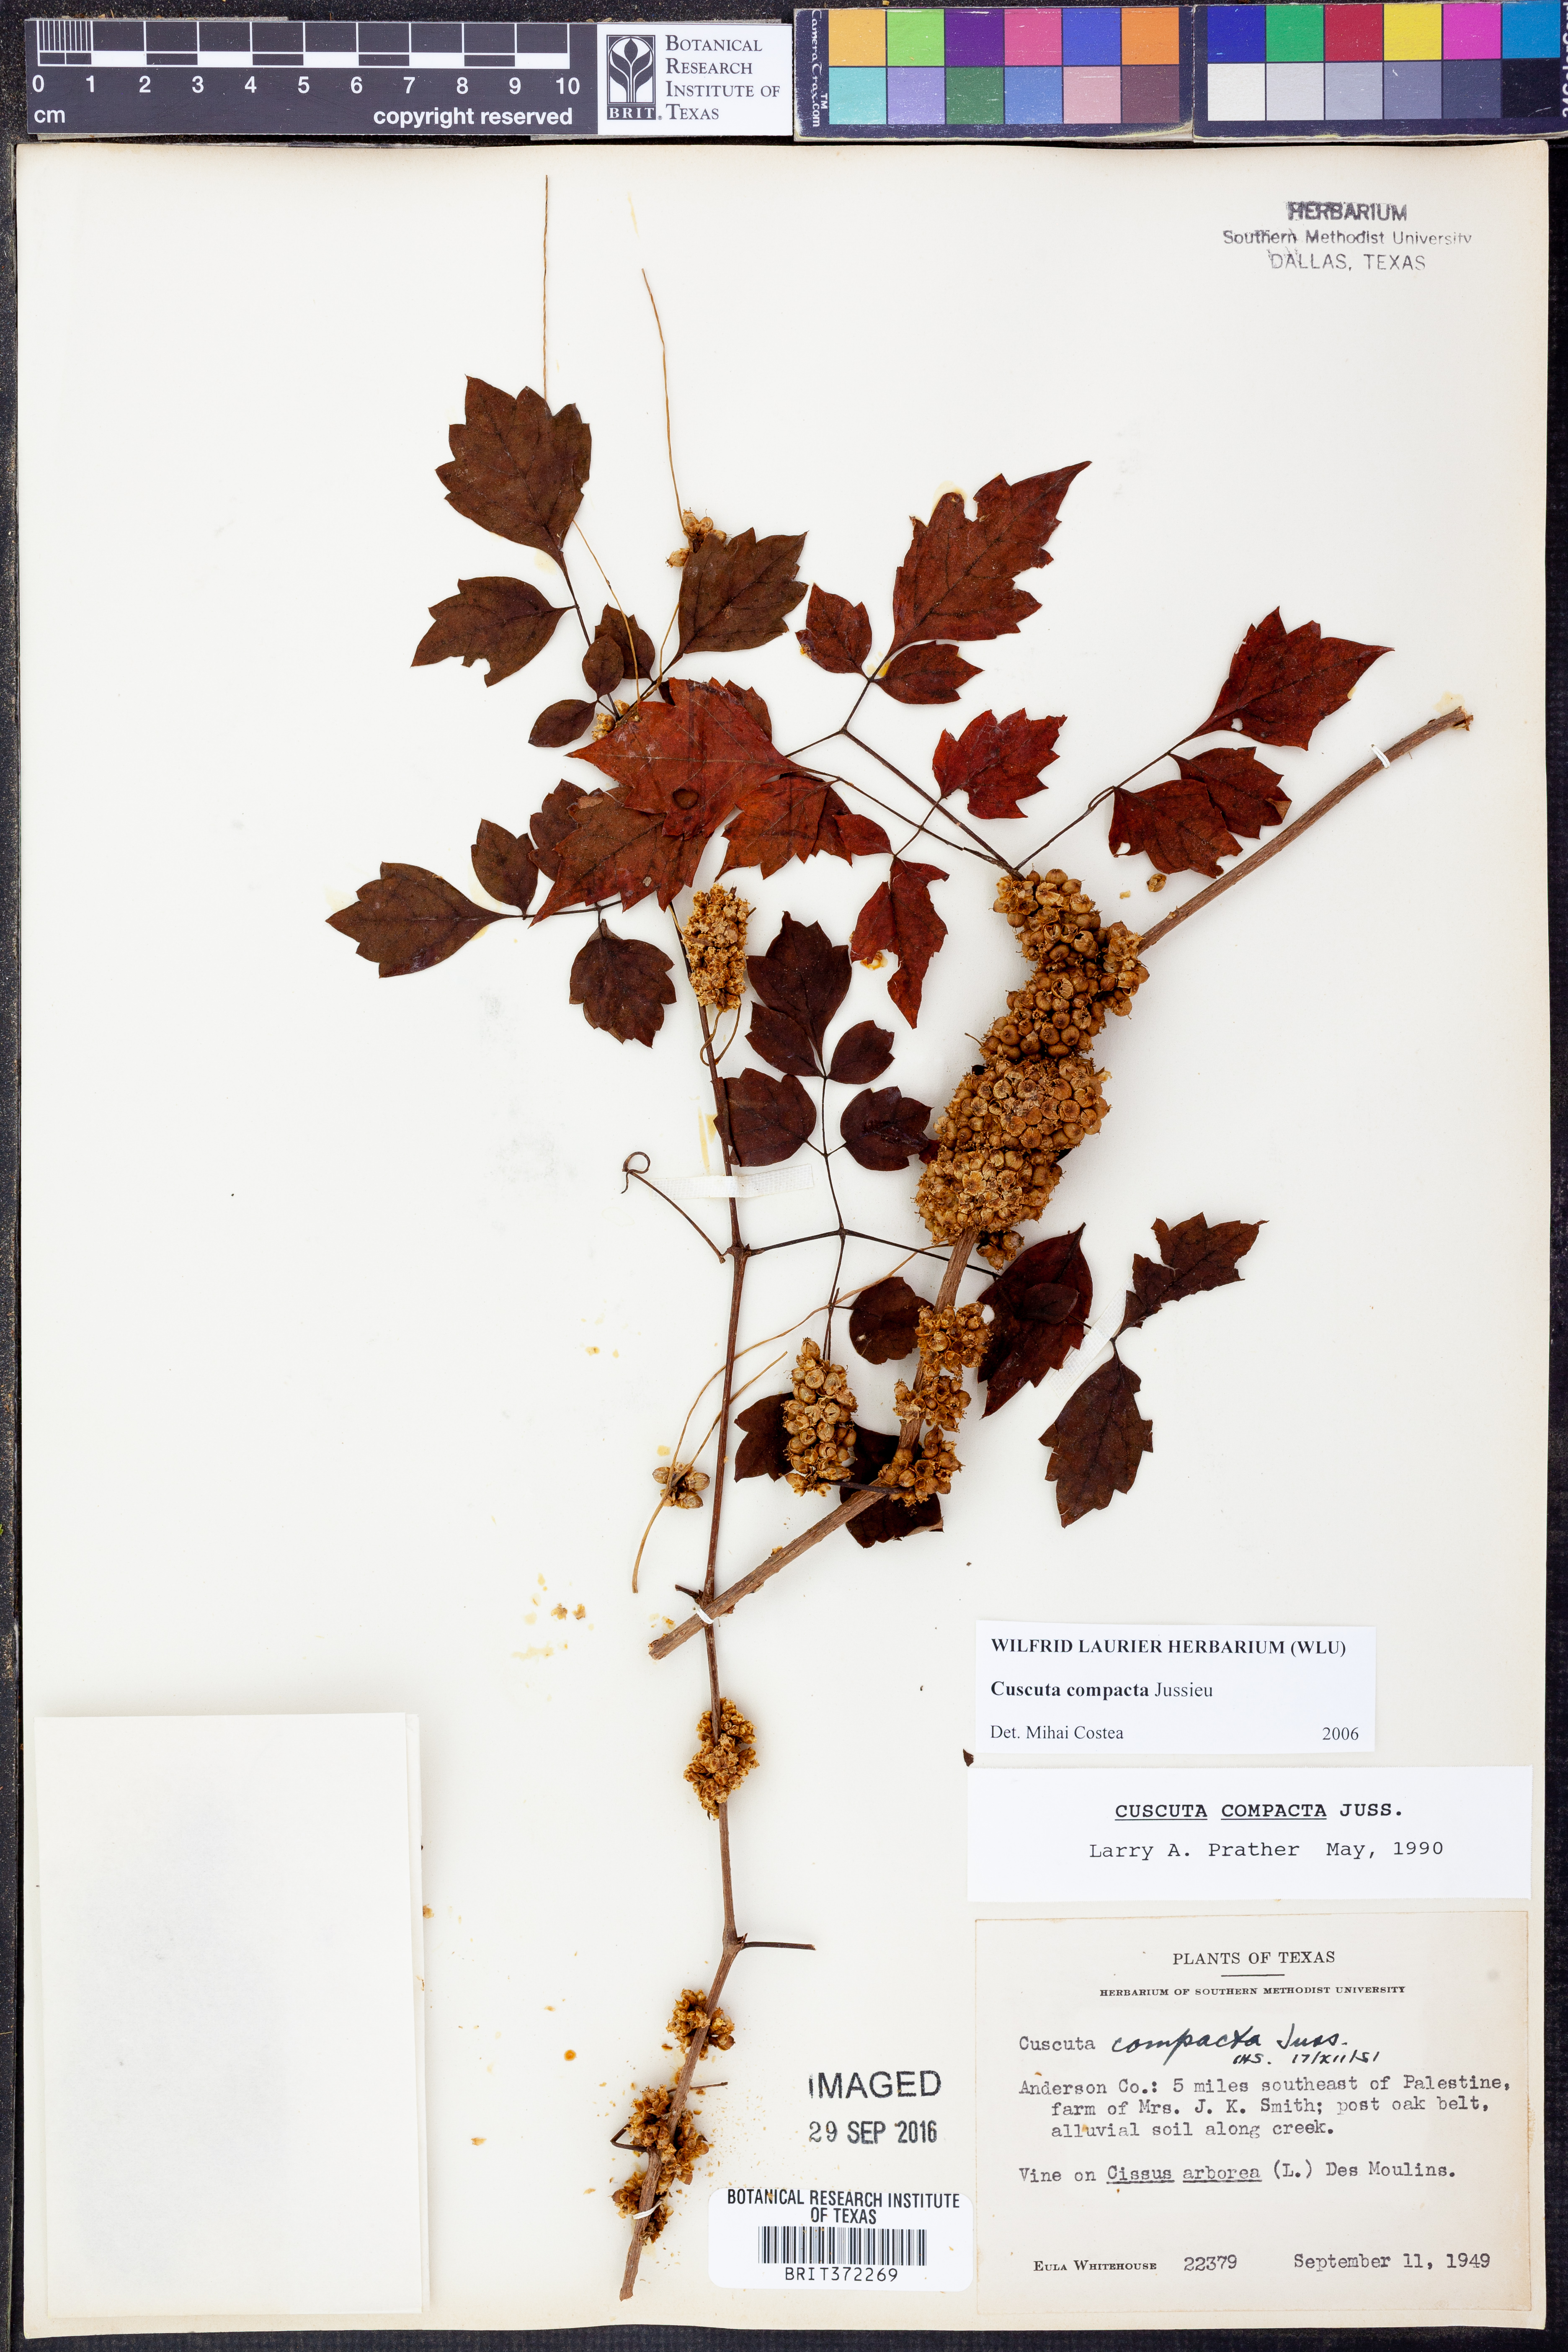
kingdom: Plantae
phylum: Tracheophyta
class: Magnoliopsida
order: Solanales
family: Convolvulaceae
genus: Cuscuta
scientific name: Cuscuta compacta
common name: Compact dodder
